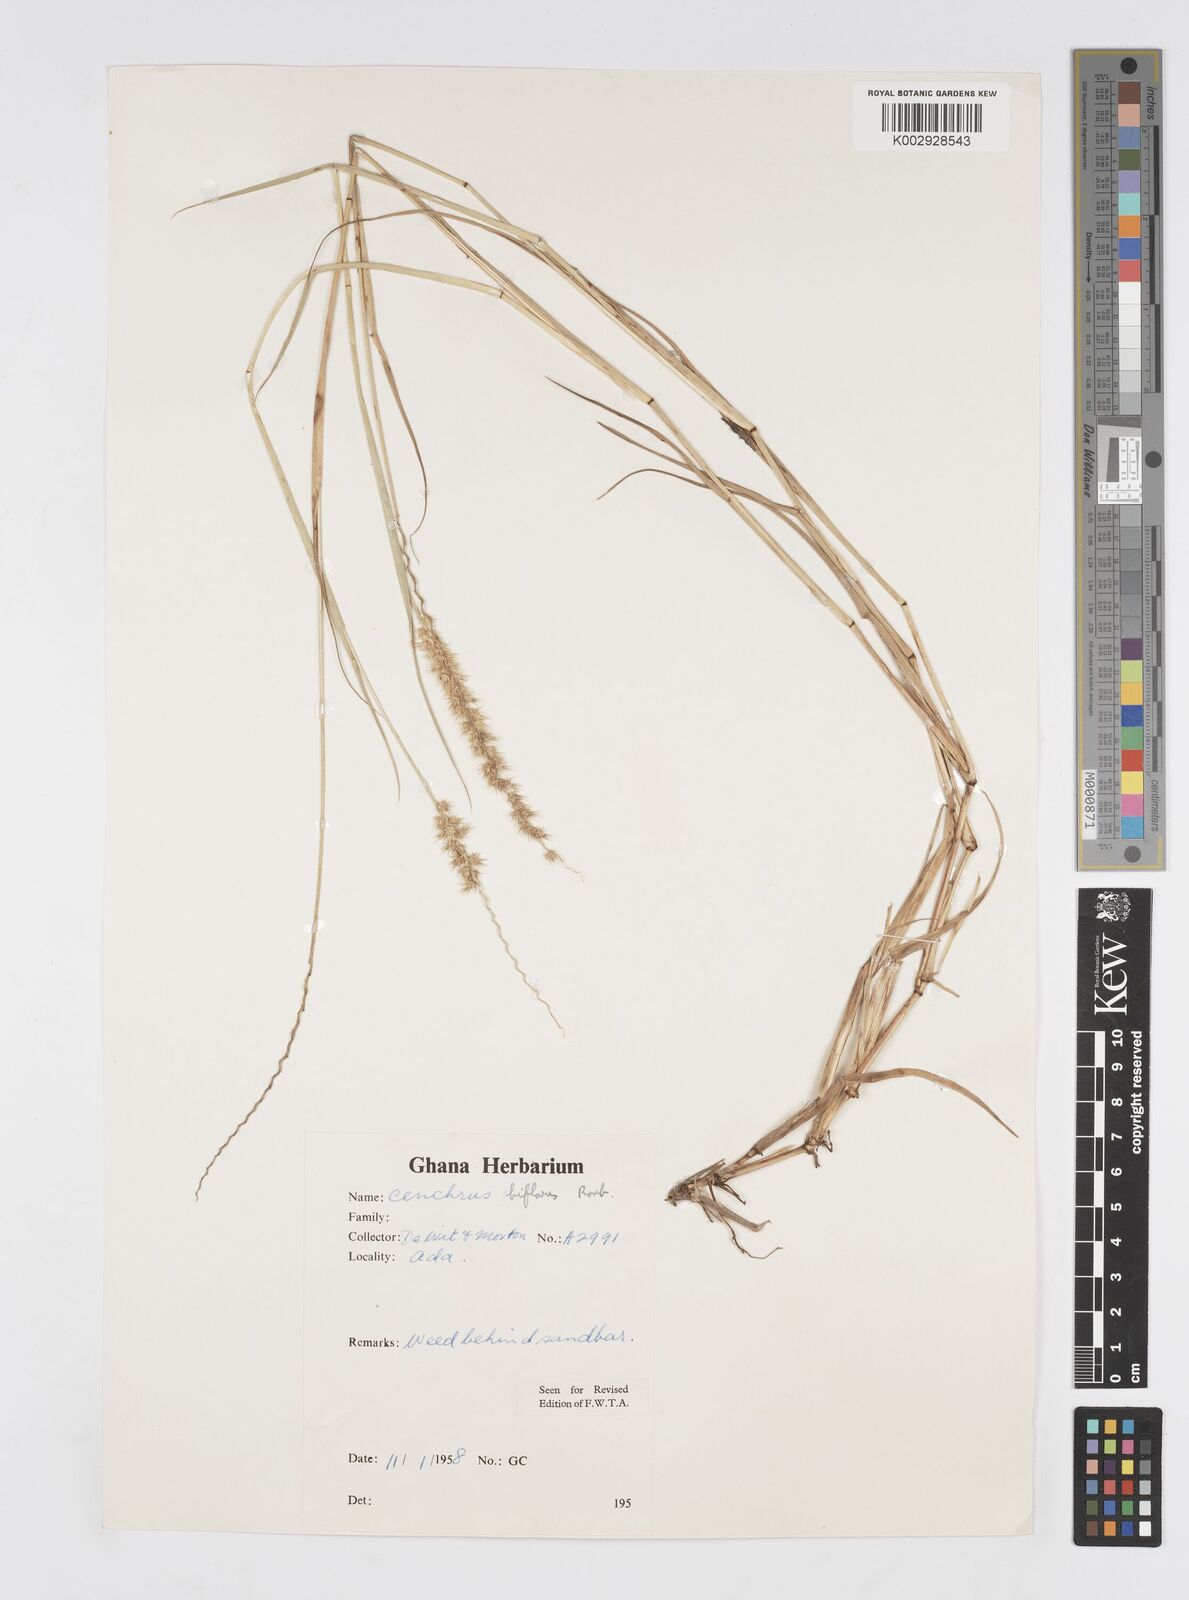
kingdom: Plantae
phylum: Tracheophyta
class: Liliopsida
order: Poales
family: Poaceae
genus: Cenchrus
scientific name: Cenchrus biflorus
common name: Indian sandbur
